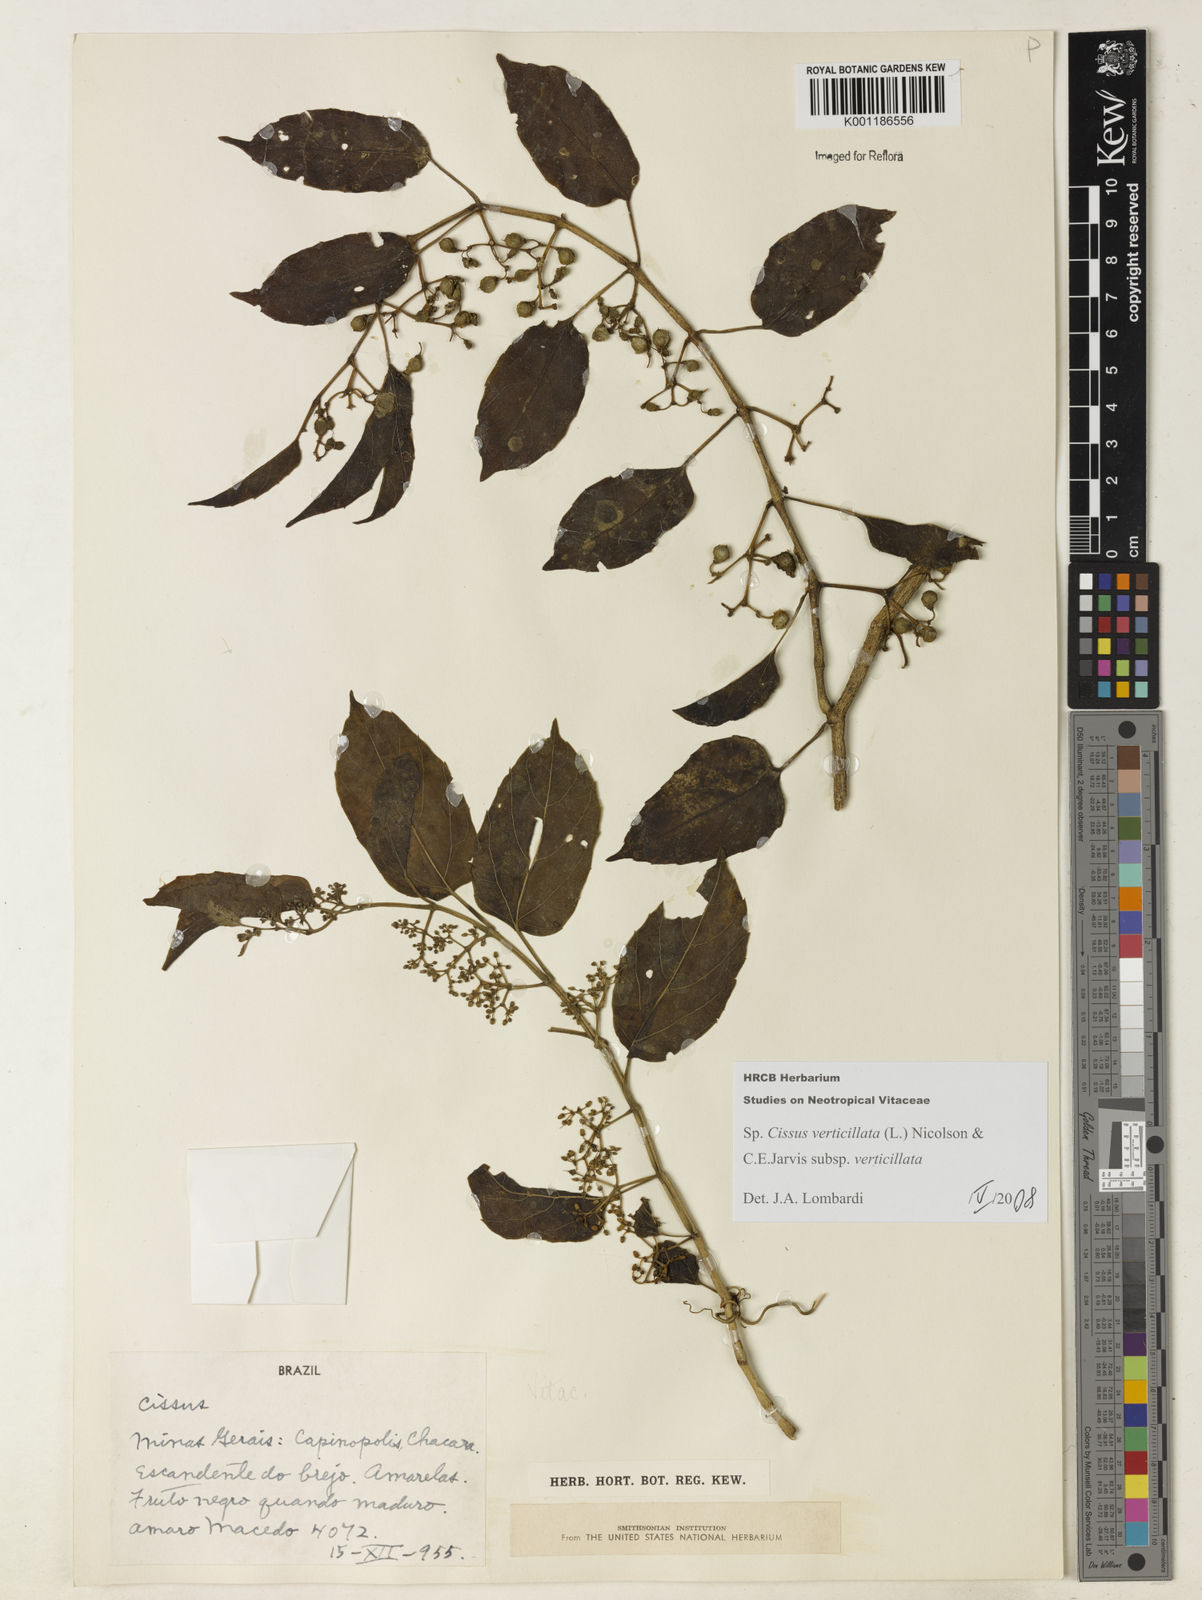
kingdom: Plantae
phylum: Tracheophyta
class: Magnoliopsida
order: Vitales
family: Vitaceae
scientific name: Vitaceae
